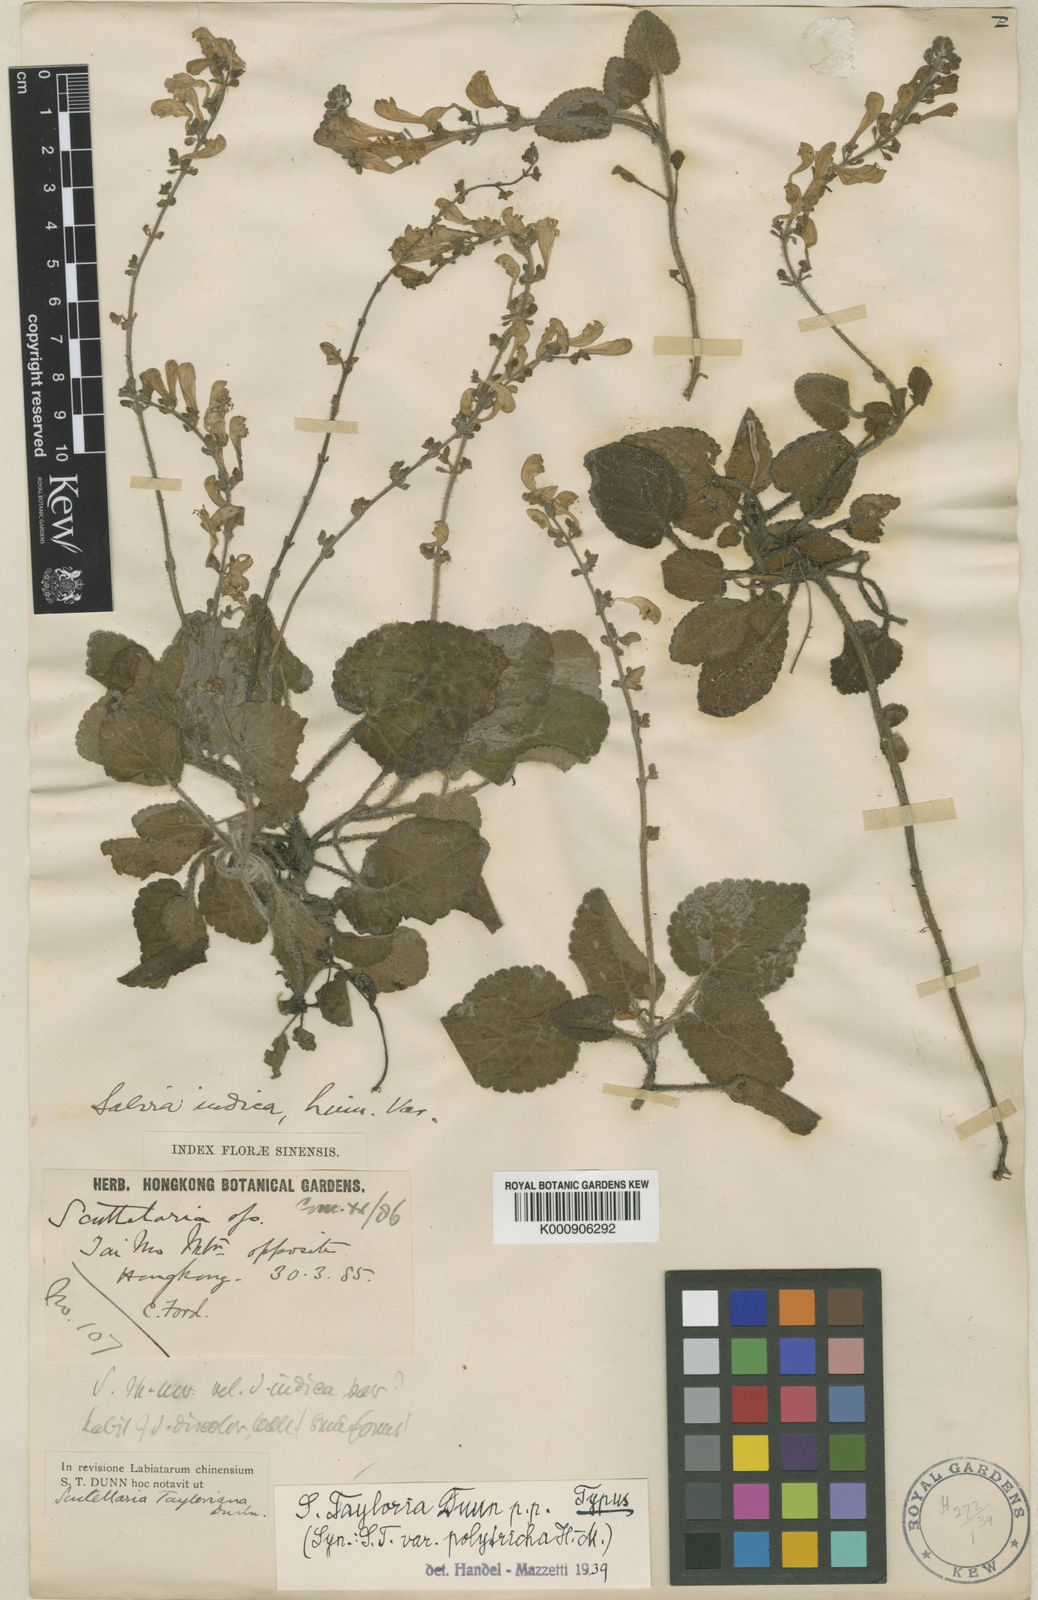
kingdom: Plantae
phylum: Tracheophyta
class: Magnoliopsida
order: Lamiales
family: Lamiaceae
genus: Scutellaria
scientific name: Scutellaria tayloriana
